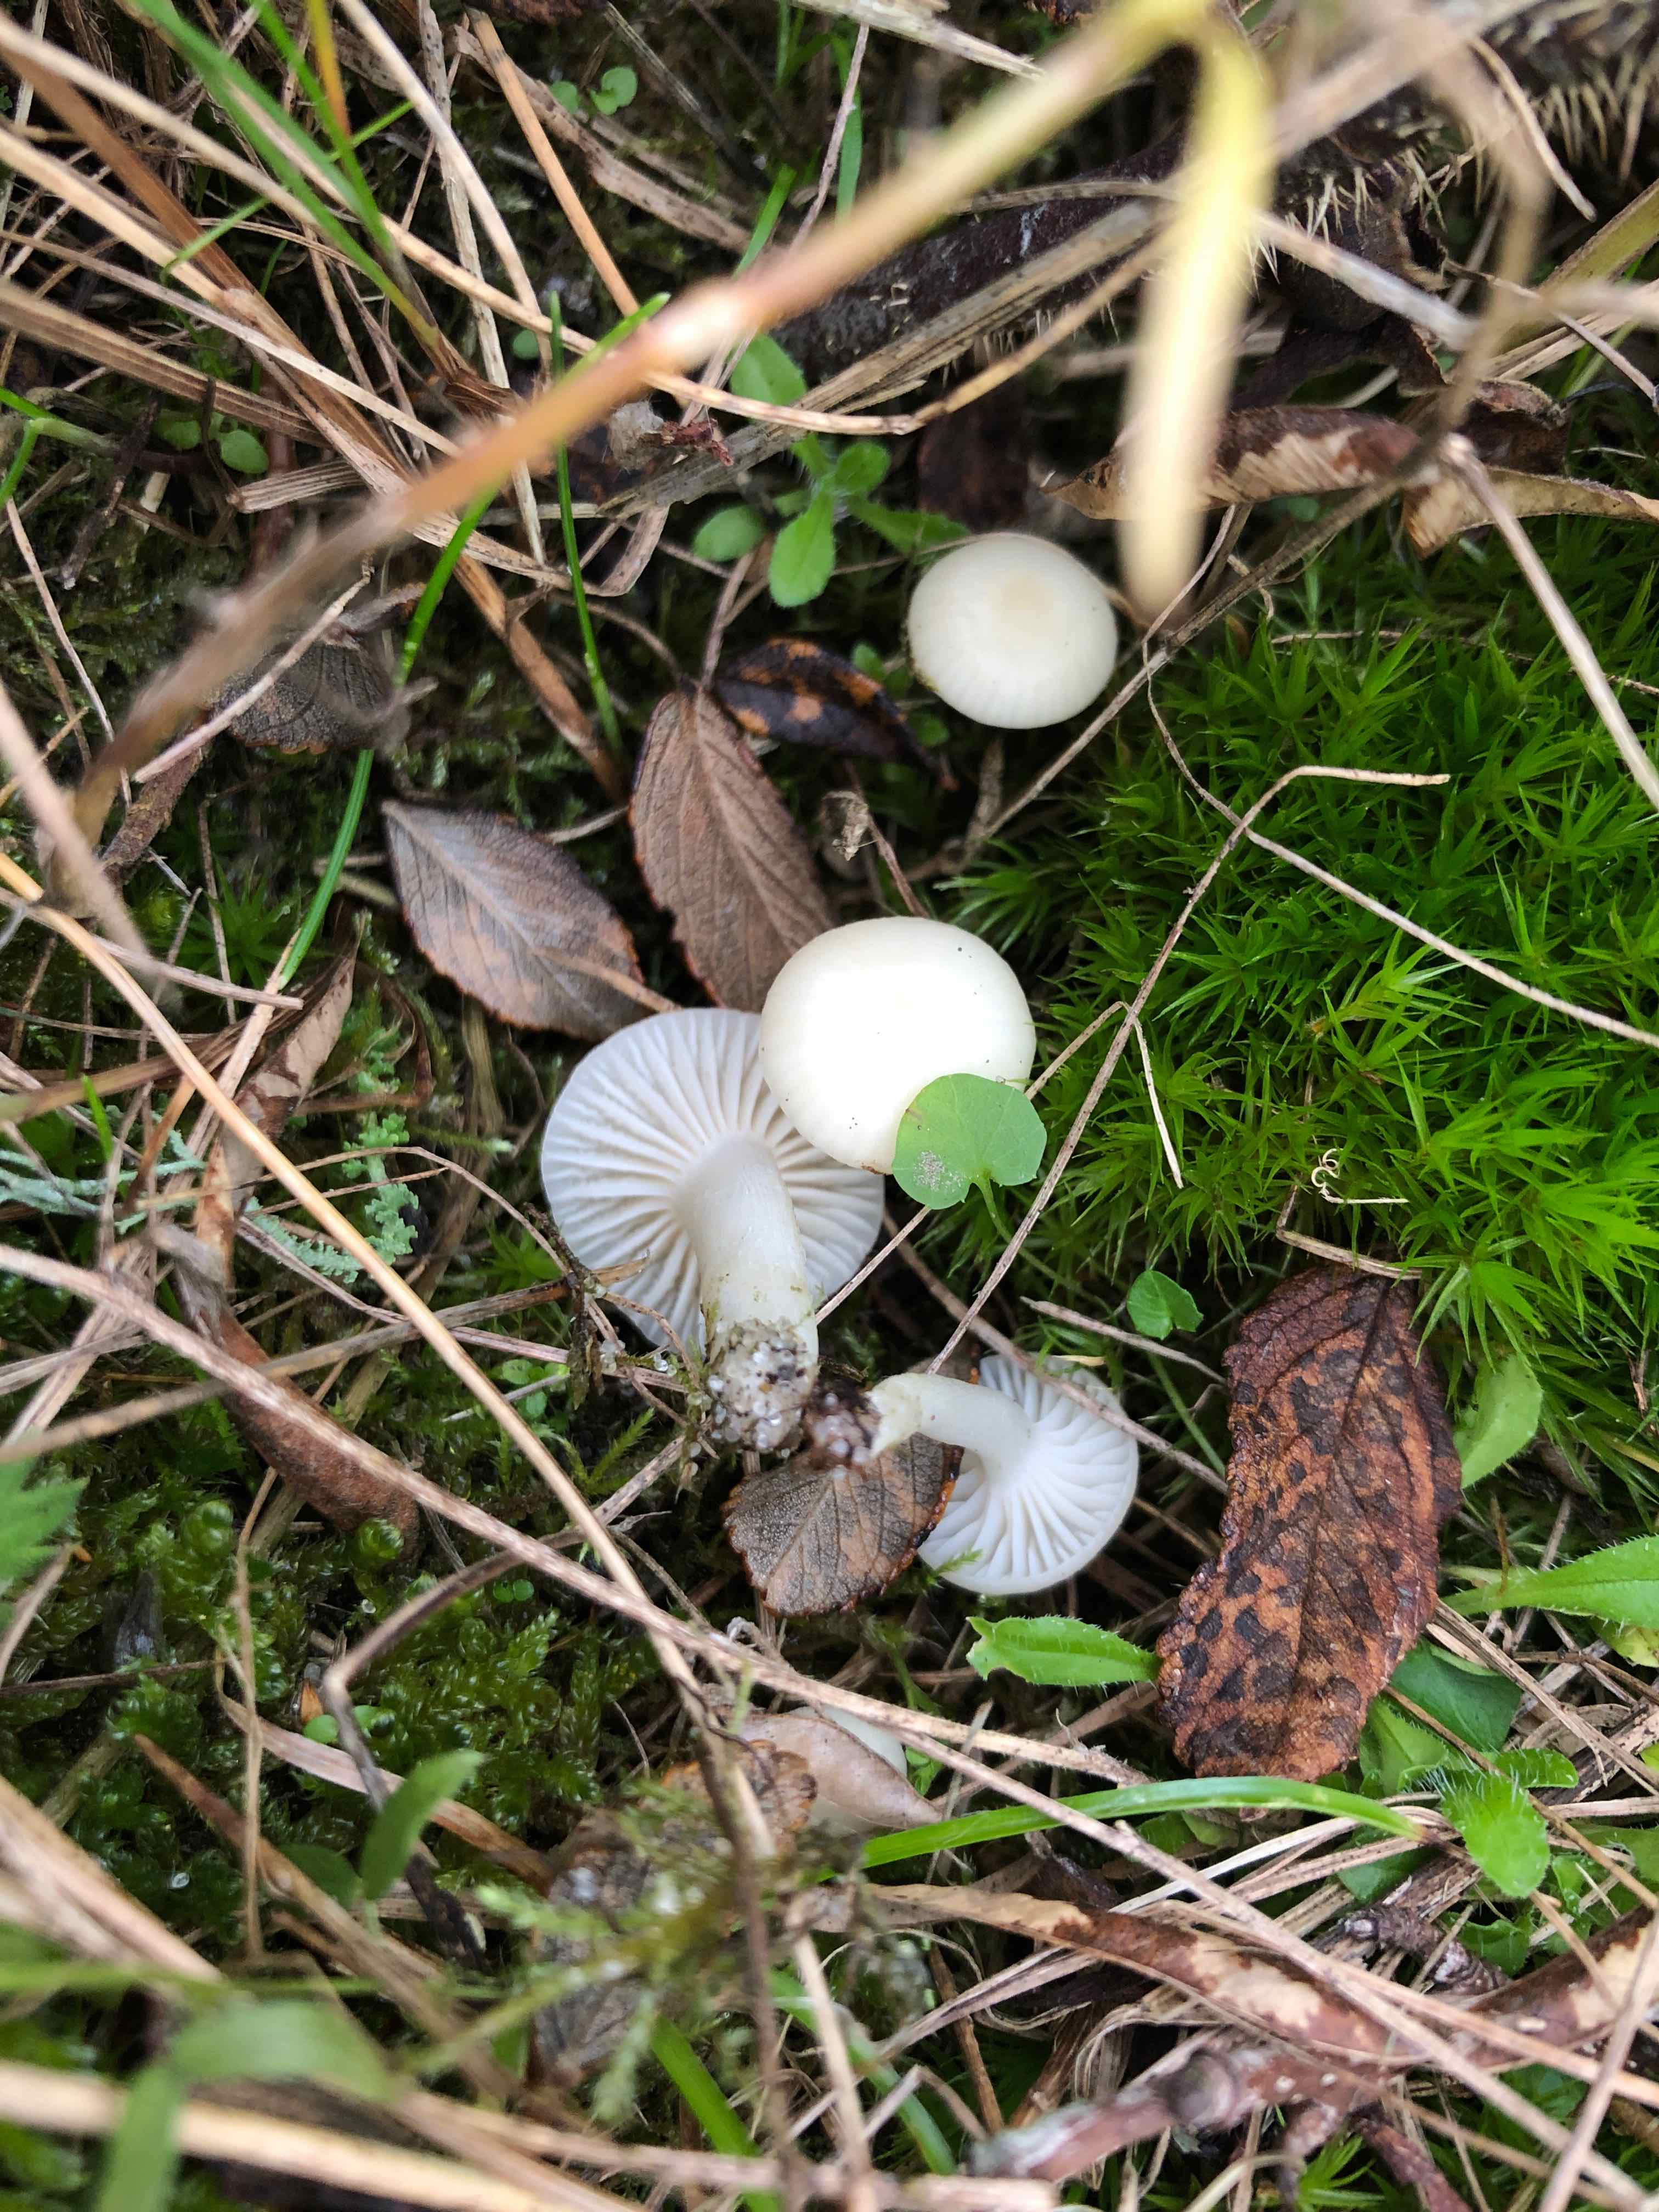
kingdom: Fungi
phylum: Basidiomycota
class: Agaricomycetes
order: Agaricales
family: Hygrophoraceae
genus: Cuphophyllus
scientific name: Cuphophyllus virgineus
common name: snehvid vokshat
